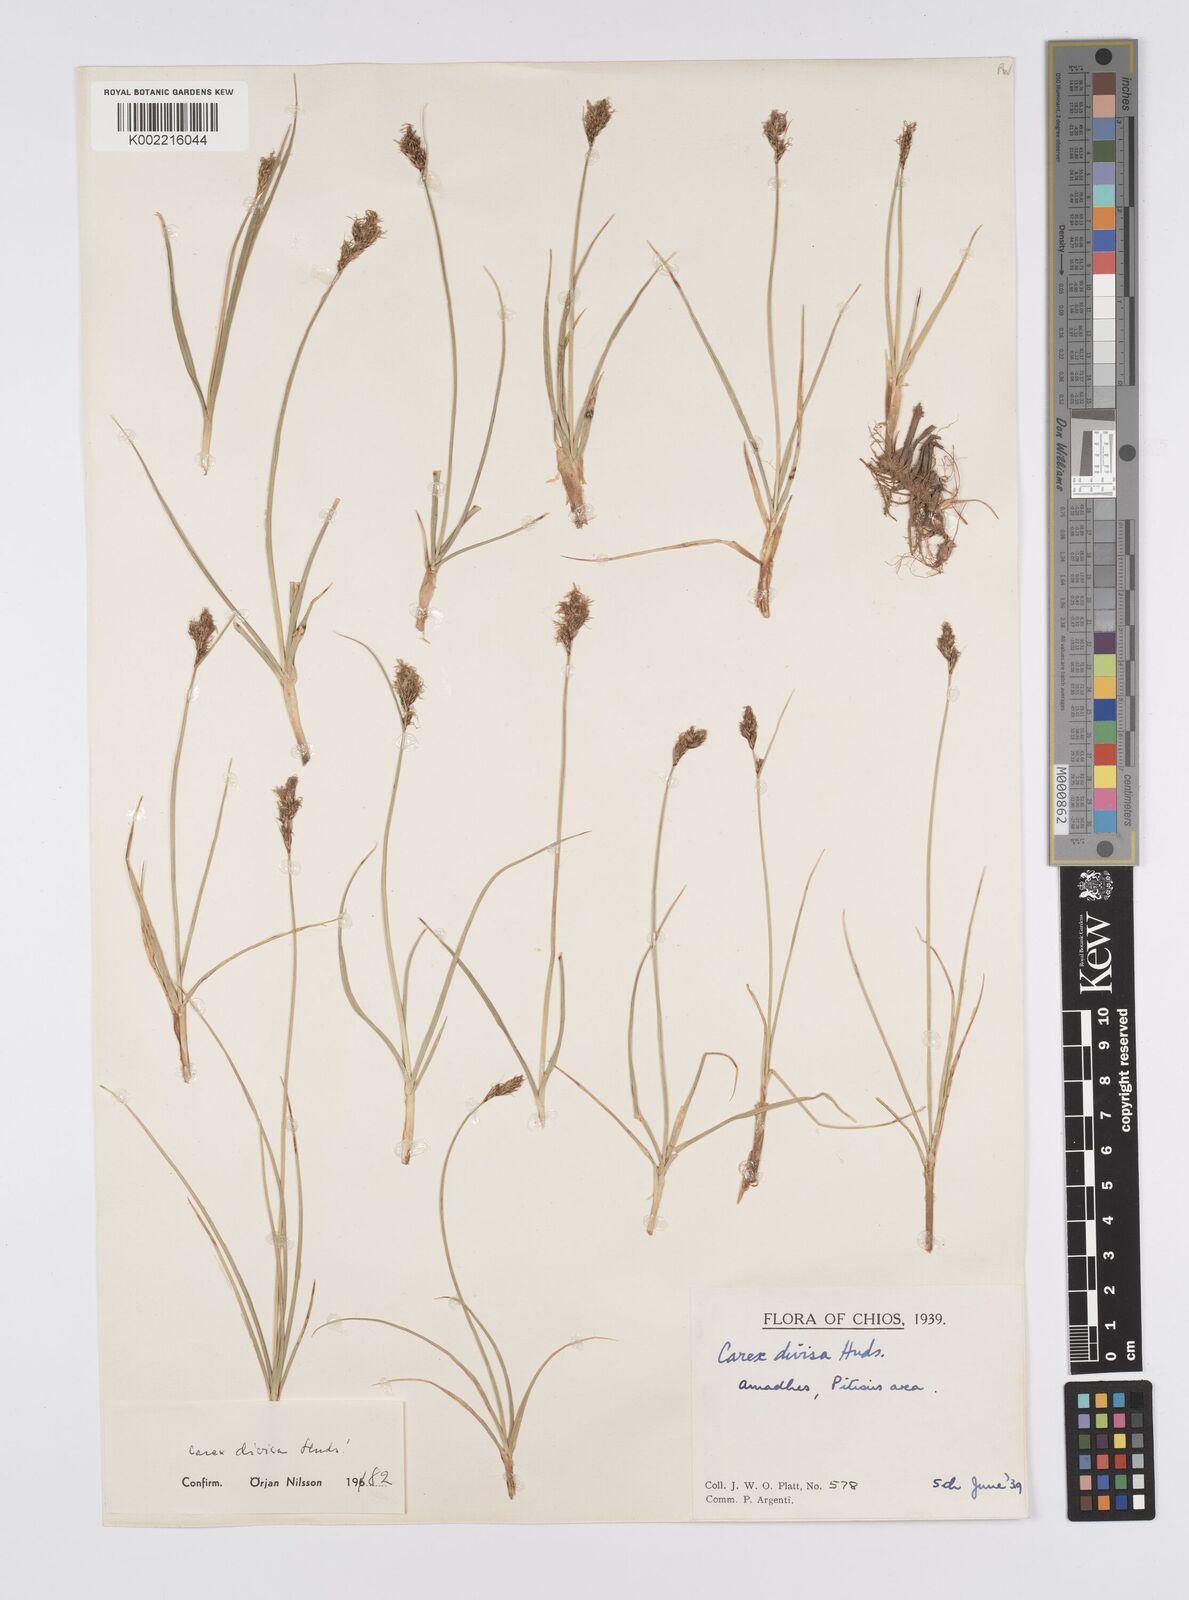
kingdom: Plantae
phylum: Tracheophyta
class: Liliopsida
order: Poales
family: Cyperaceae
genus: Carex
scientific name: Carex divisa
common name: Divided sedge
